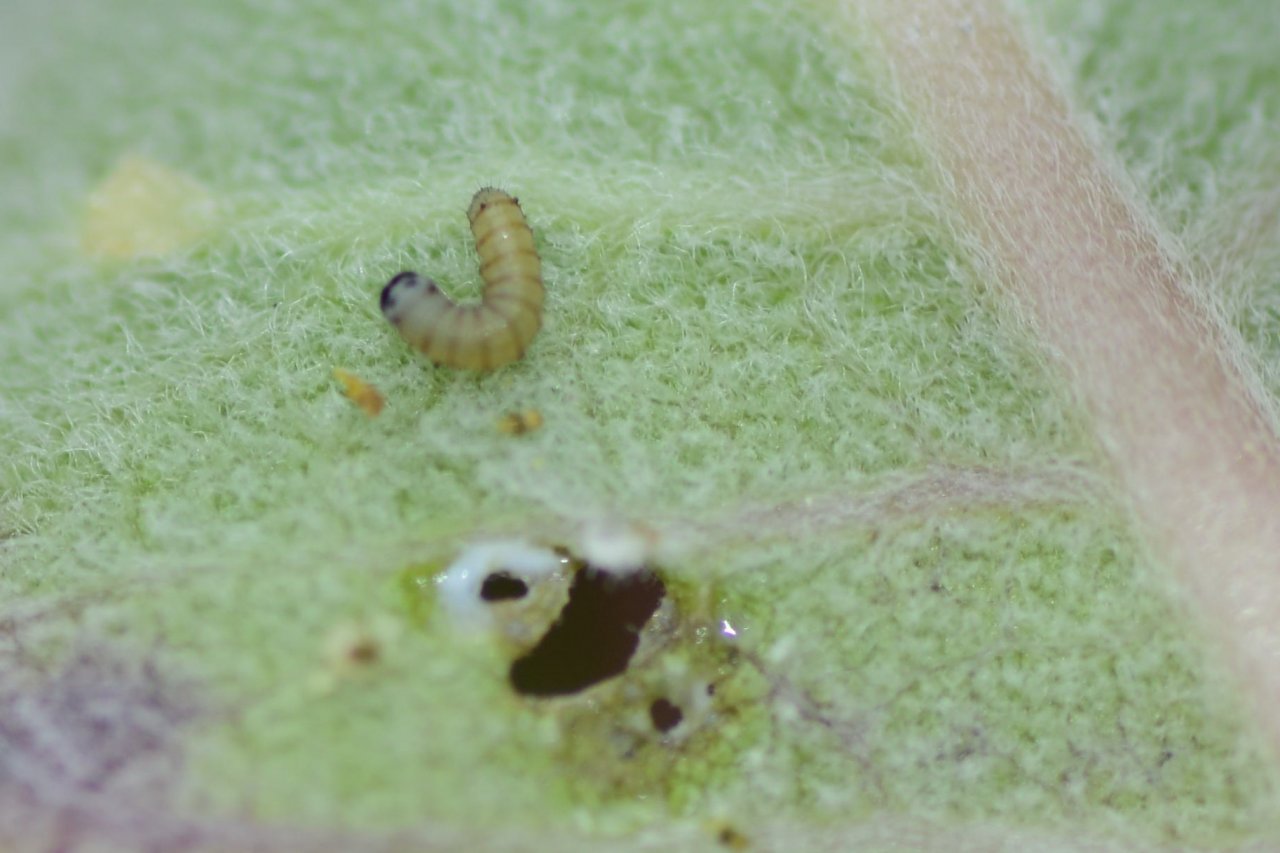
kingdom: Animalia
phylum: Arthropoda
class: Insecta
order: Lepidoptera
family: Nymphalidae
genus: Danaus
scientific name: Danaus plexippus
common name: Monarch
